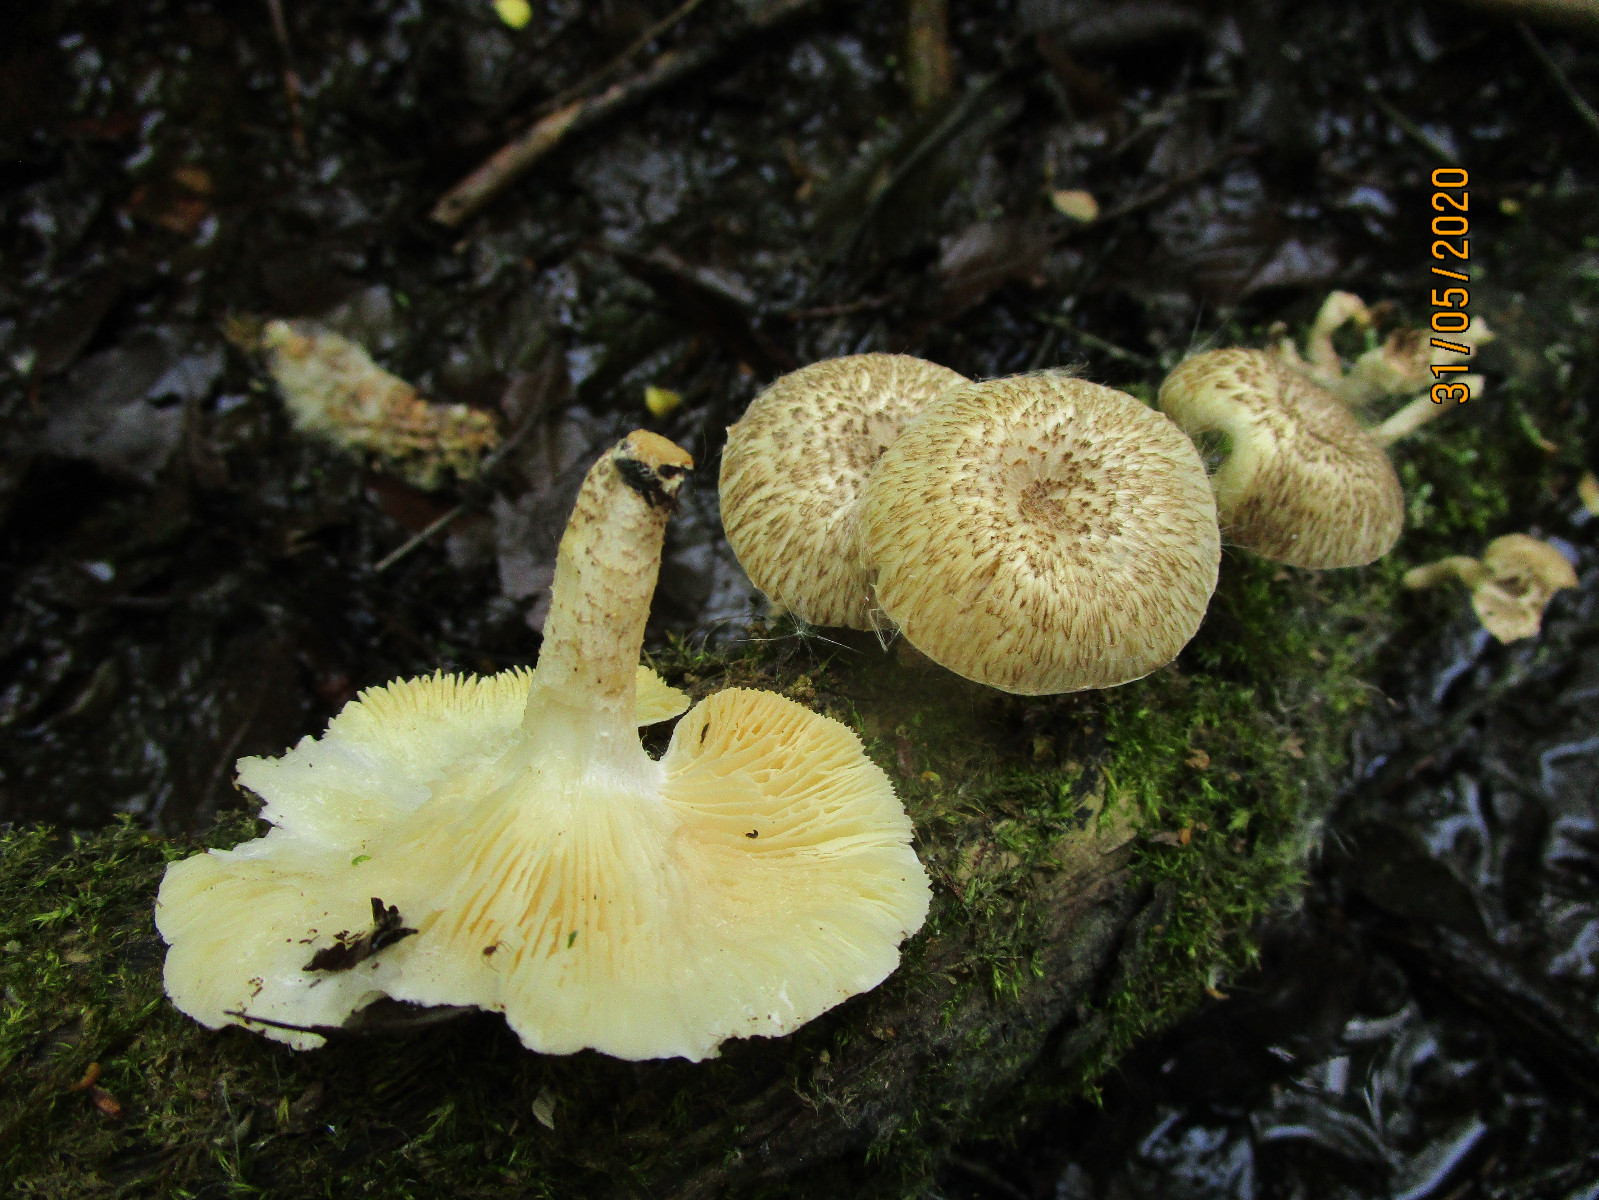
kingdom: Fungi
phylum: Basidiomycota
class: Agaricomycetes
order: Polyporales
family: Polyporaceae
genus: Lentinus
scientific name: Lentinus tigrinus
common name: tigerhat
